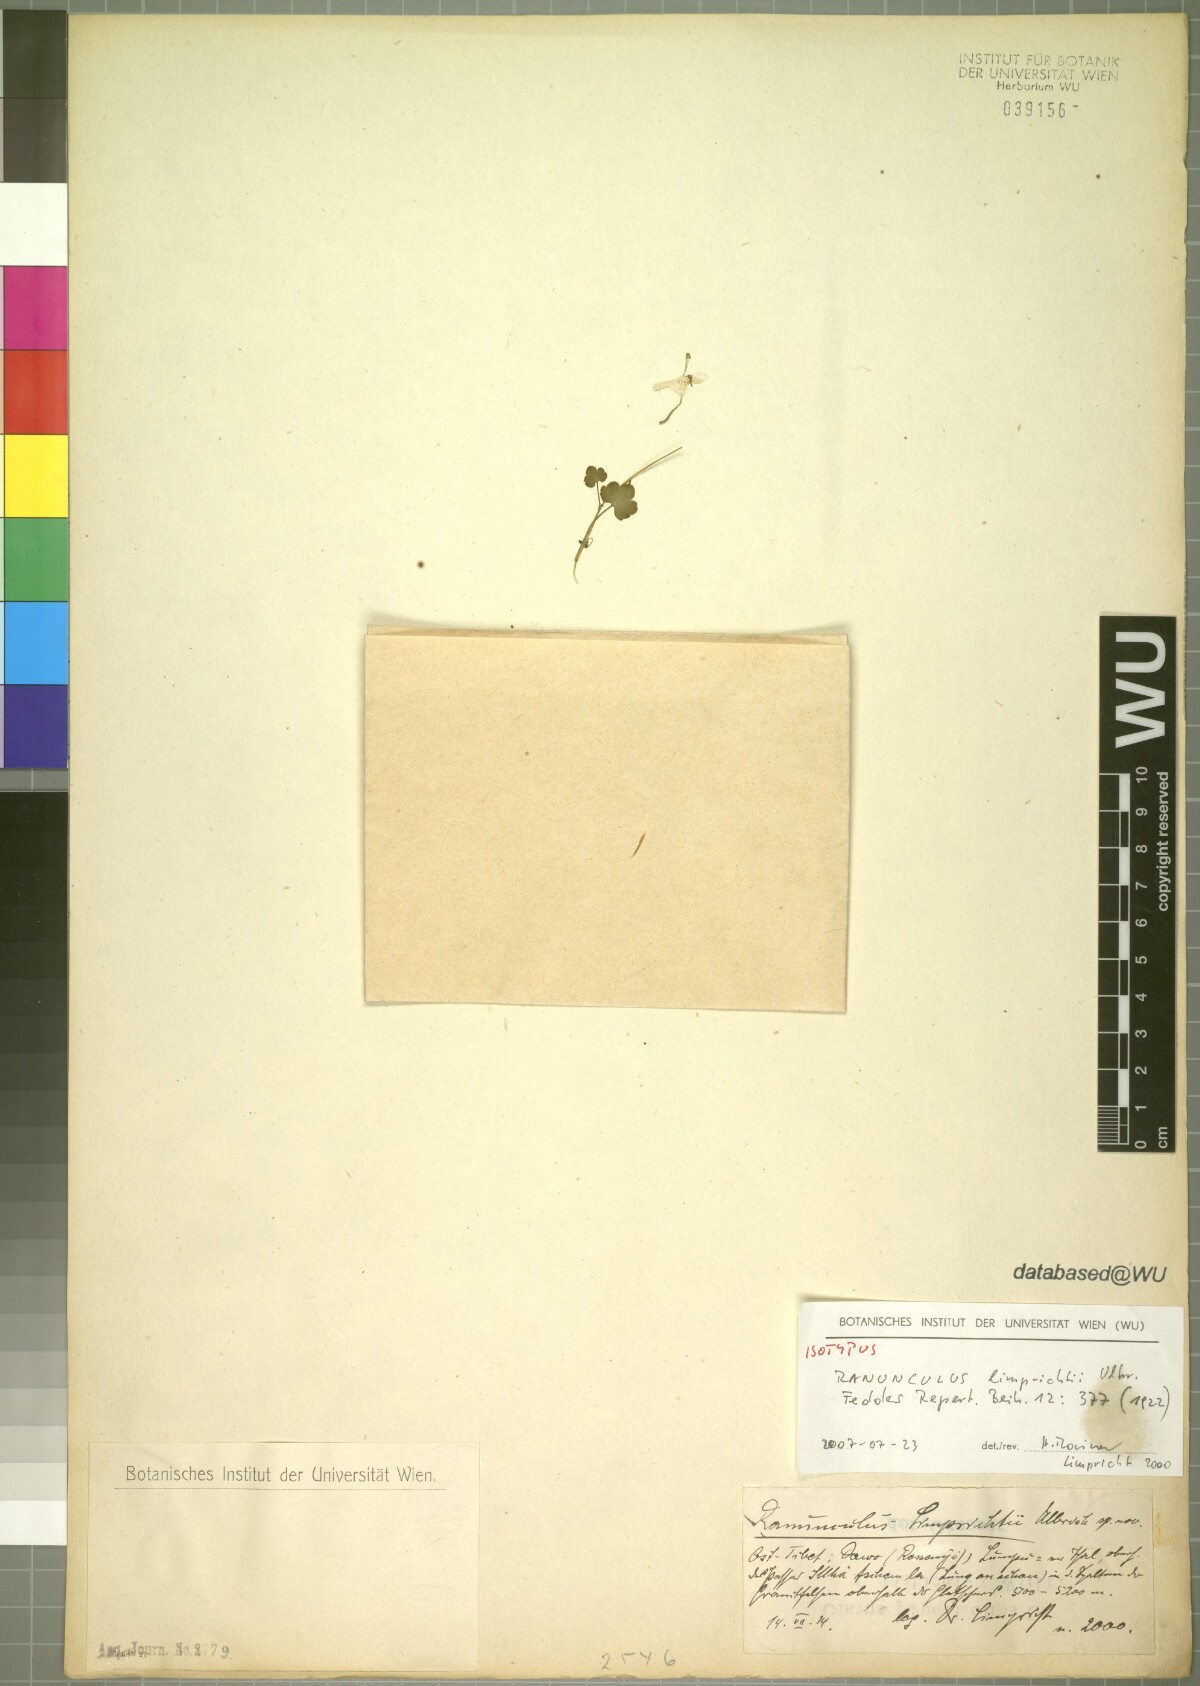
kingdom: Plantae
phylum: Tracheophyta
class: Magnoliopsida
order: Ranunculales
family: Ranunculaceae
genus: Ranunculus
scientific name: Ranunculus limprichtii
